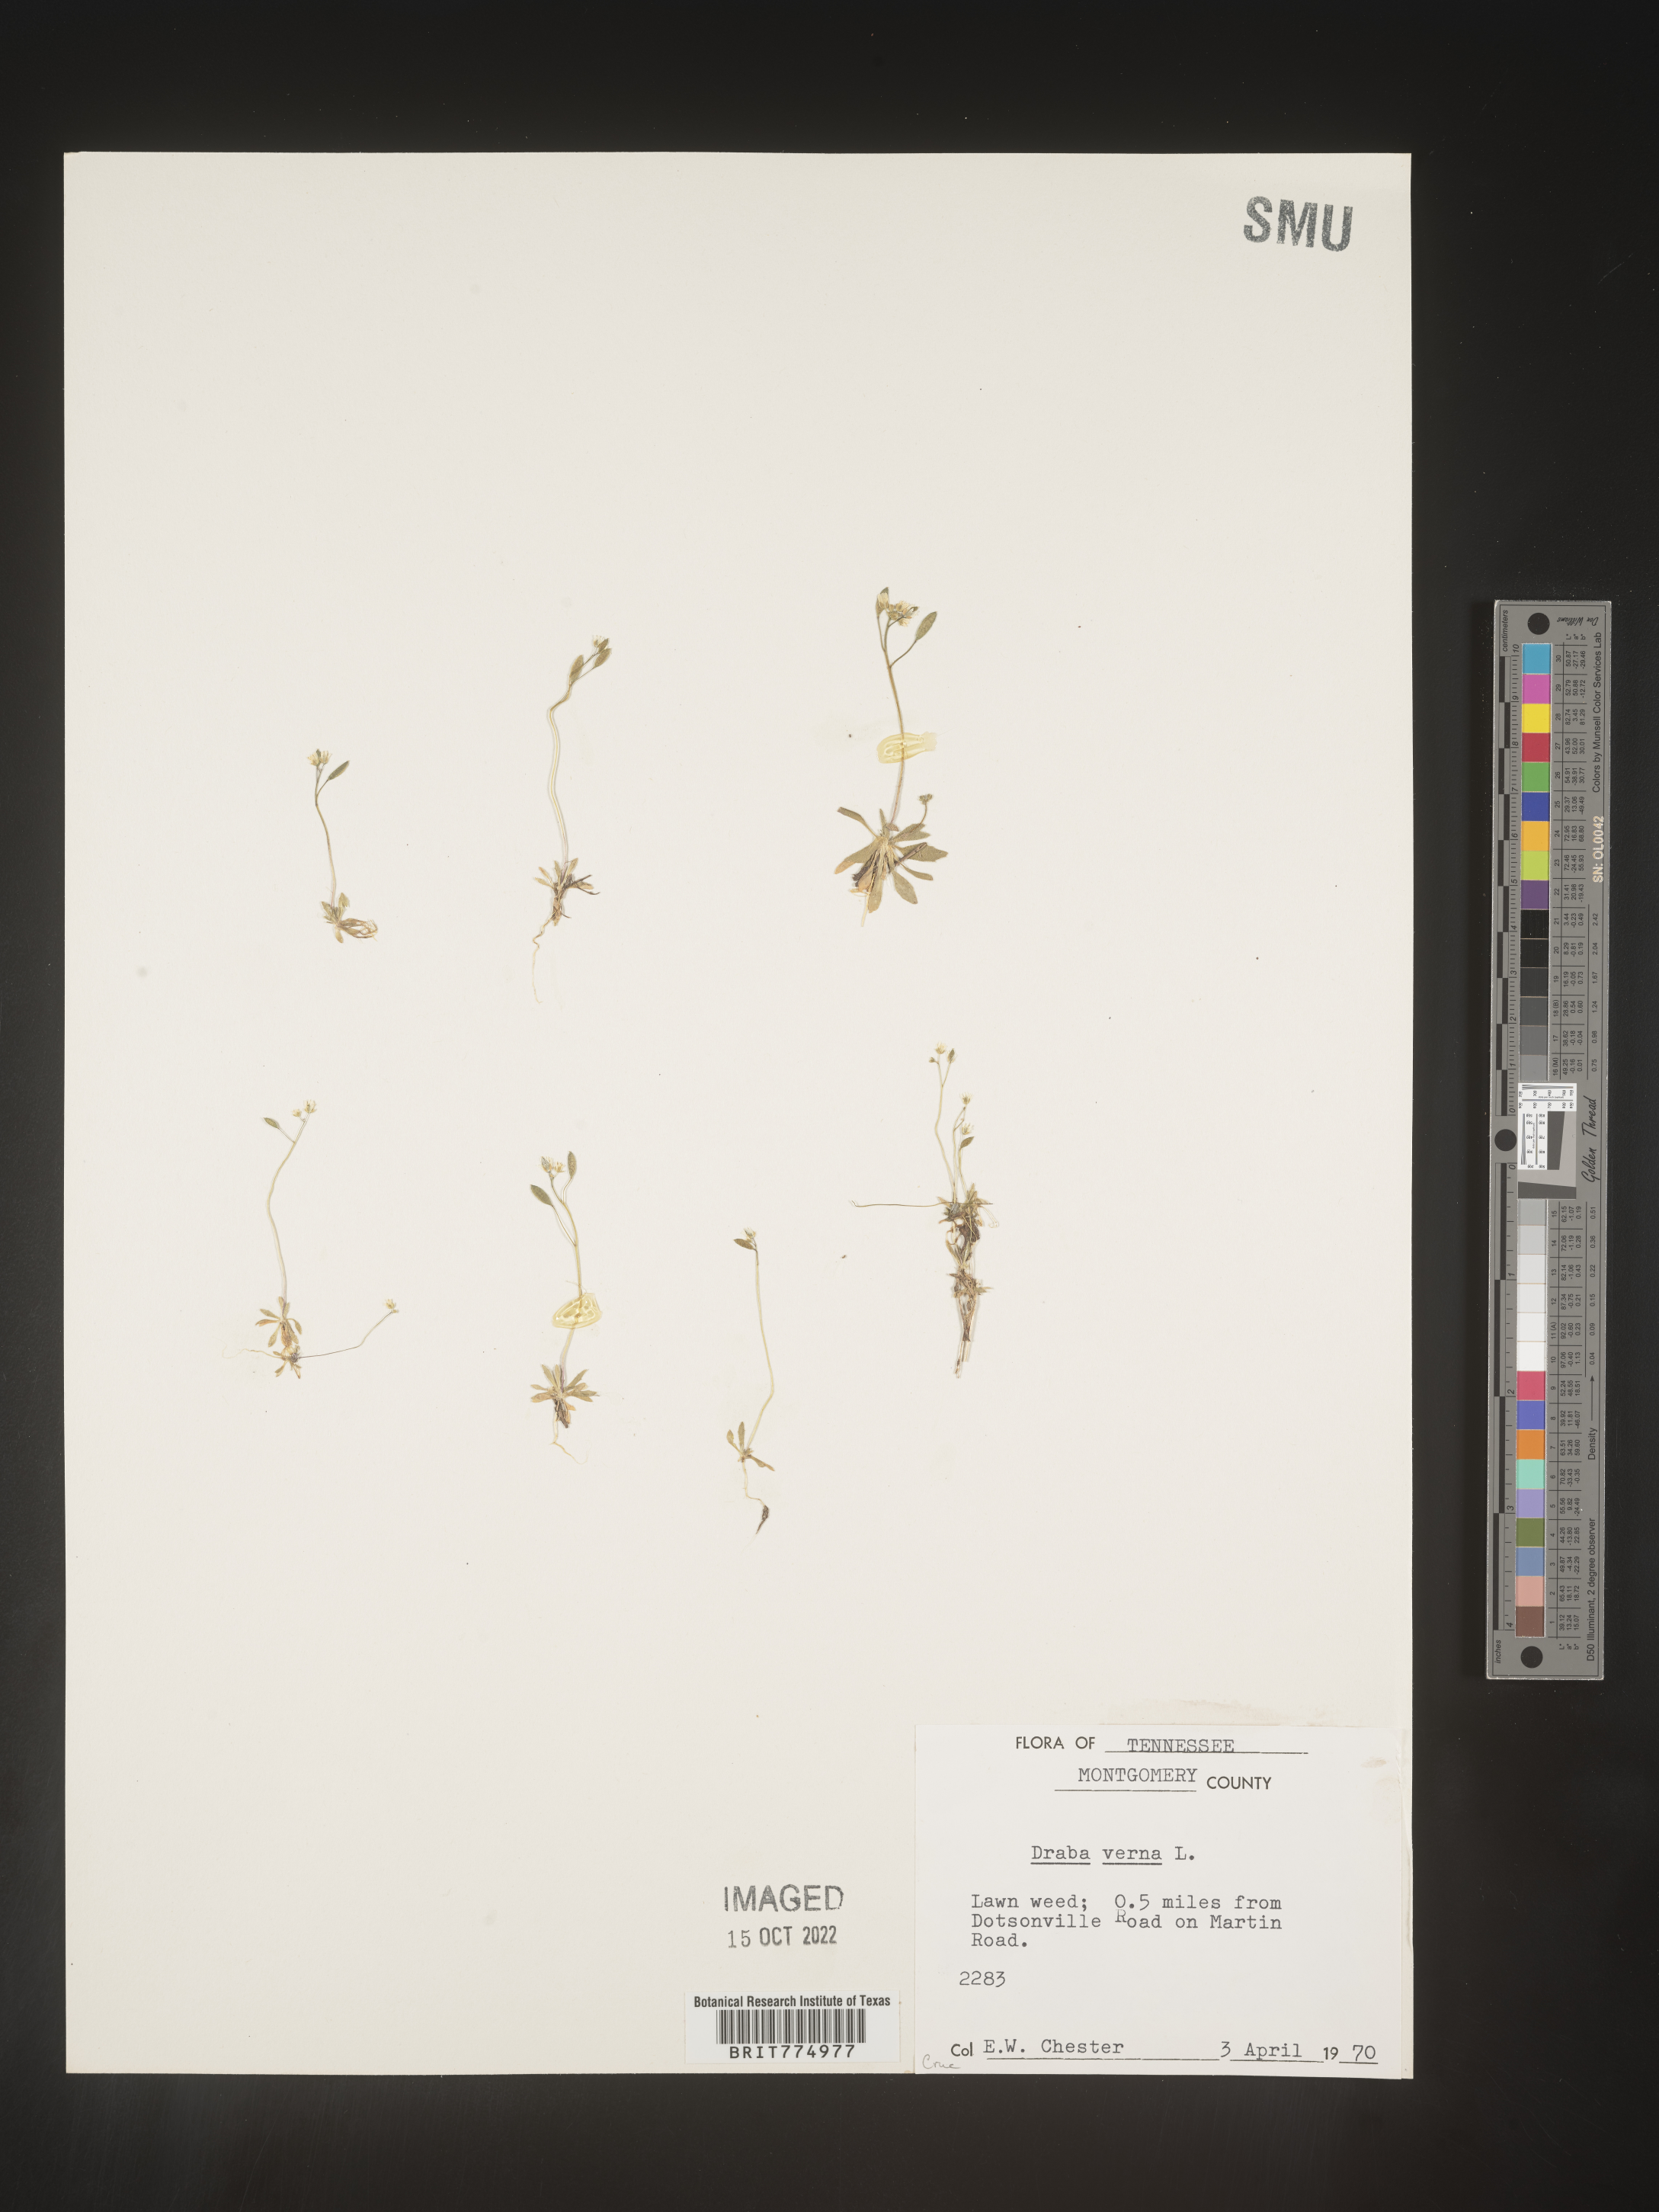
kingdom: Plantae
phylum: Tracheophyta
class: Magnoliopsida
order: Brassicales
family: Brassicaceae
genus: Draba
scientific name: Draba verna
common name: Spring draba
